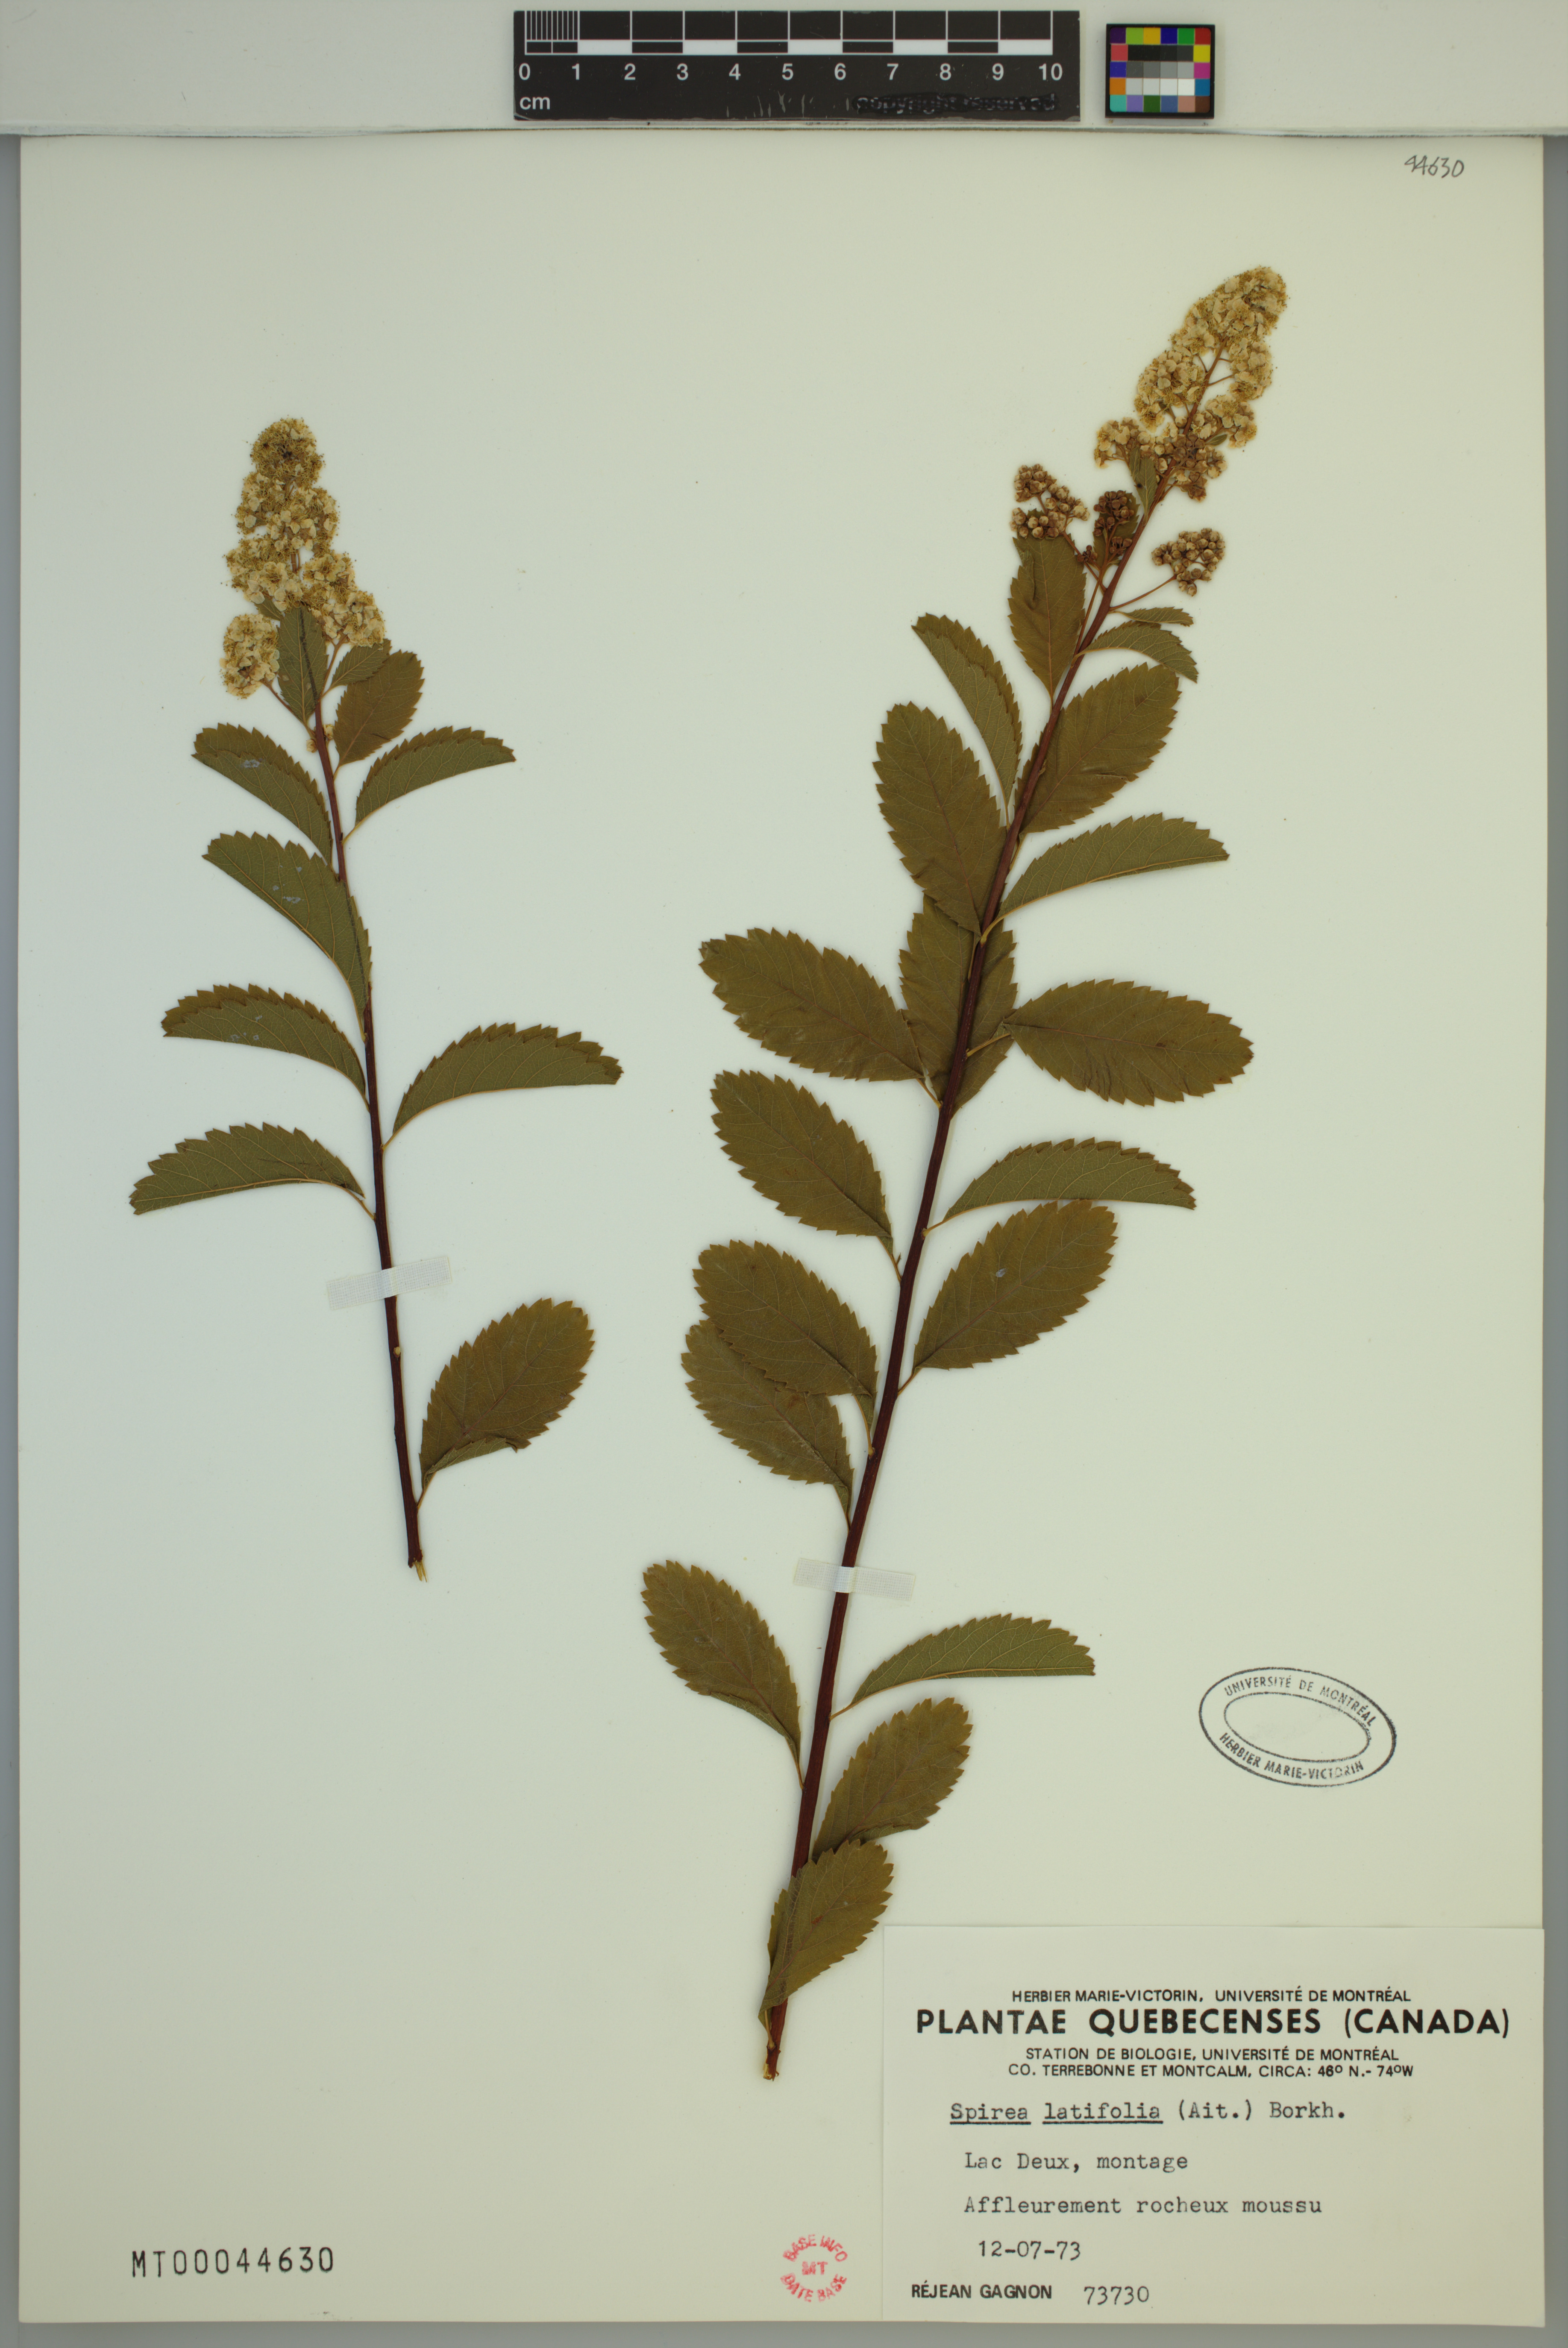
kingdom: Plantae
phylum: Tracheophyta
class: Magnoliopsida
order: Rosales
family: Rosaceae
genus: Spiraea
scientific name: Spiraea alba
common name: Pale bridewort
